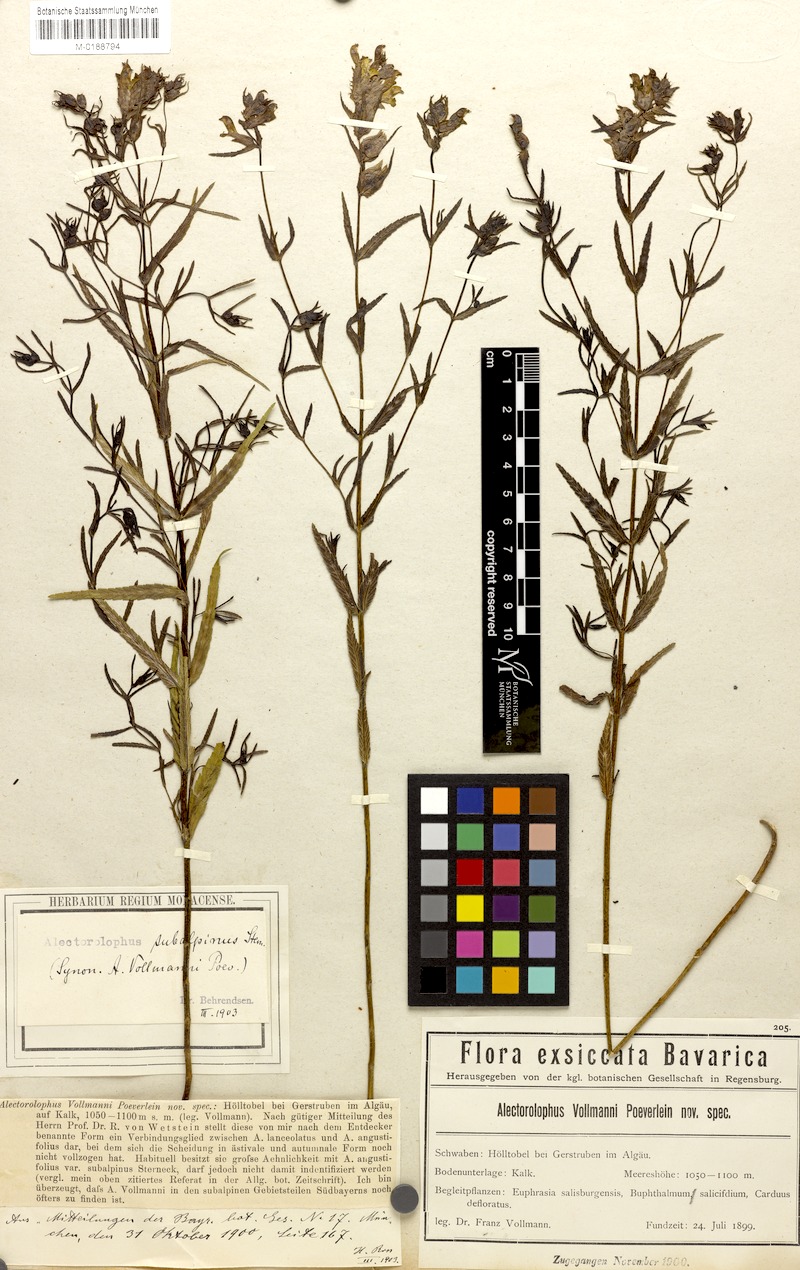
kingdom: Plantae
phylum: Tracheophyta
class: Magnoliopsida
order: Lamiales
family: Orobanchaceae
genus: Rhinanthus
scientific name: Rhinanthus glacialis
